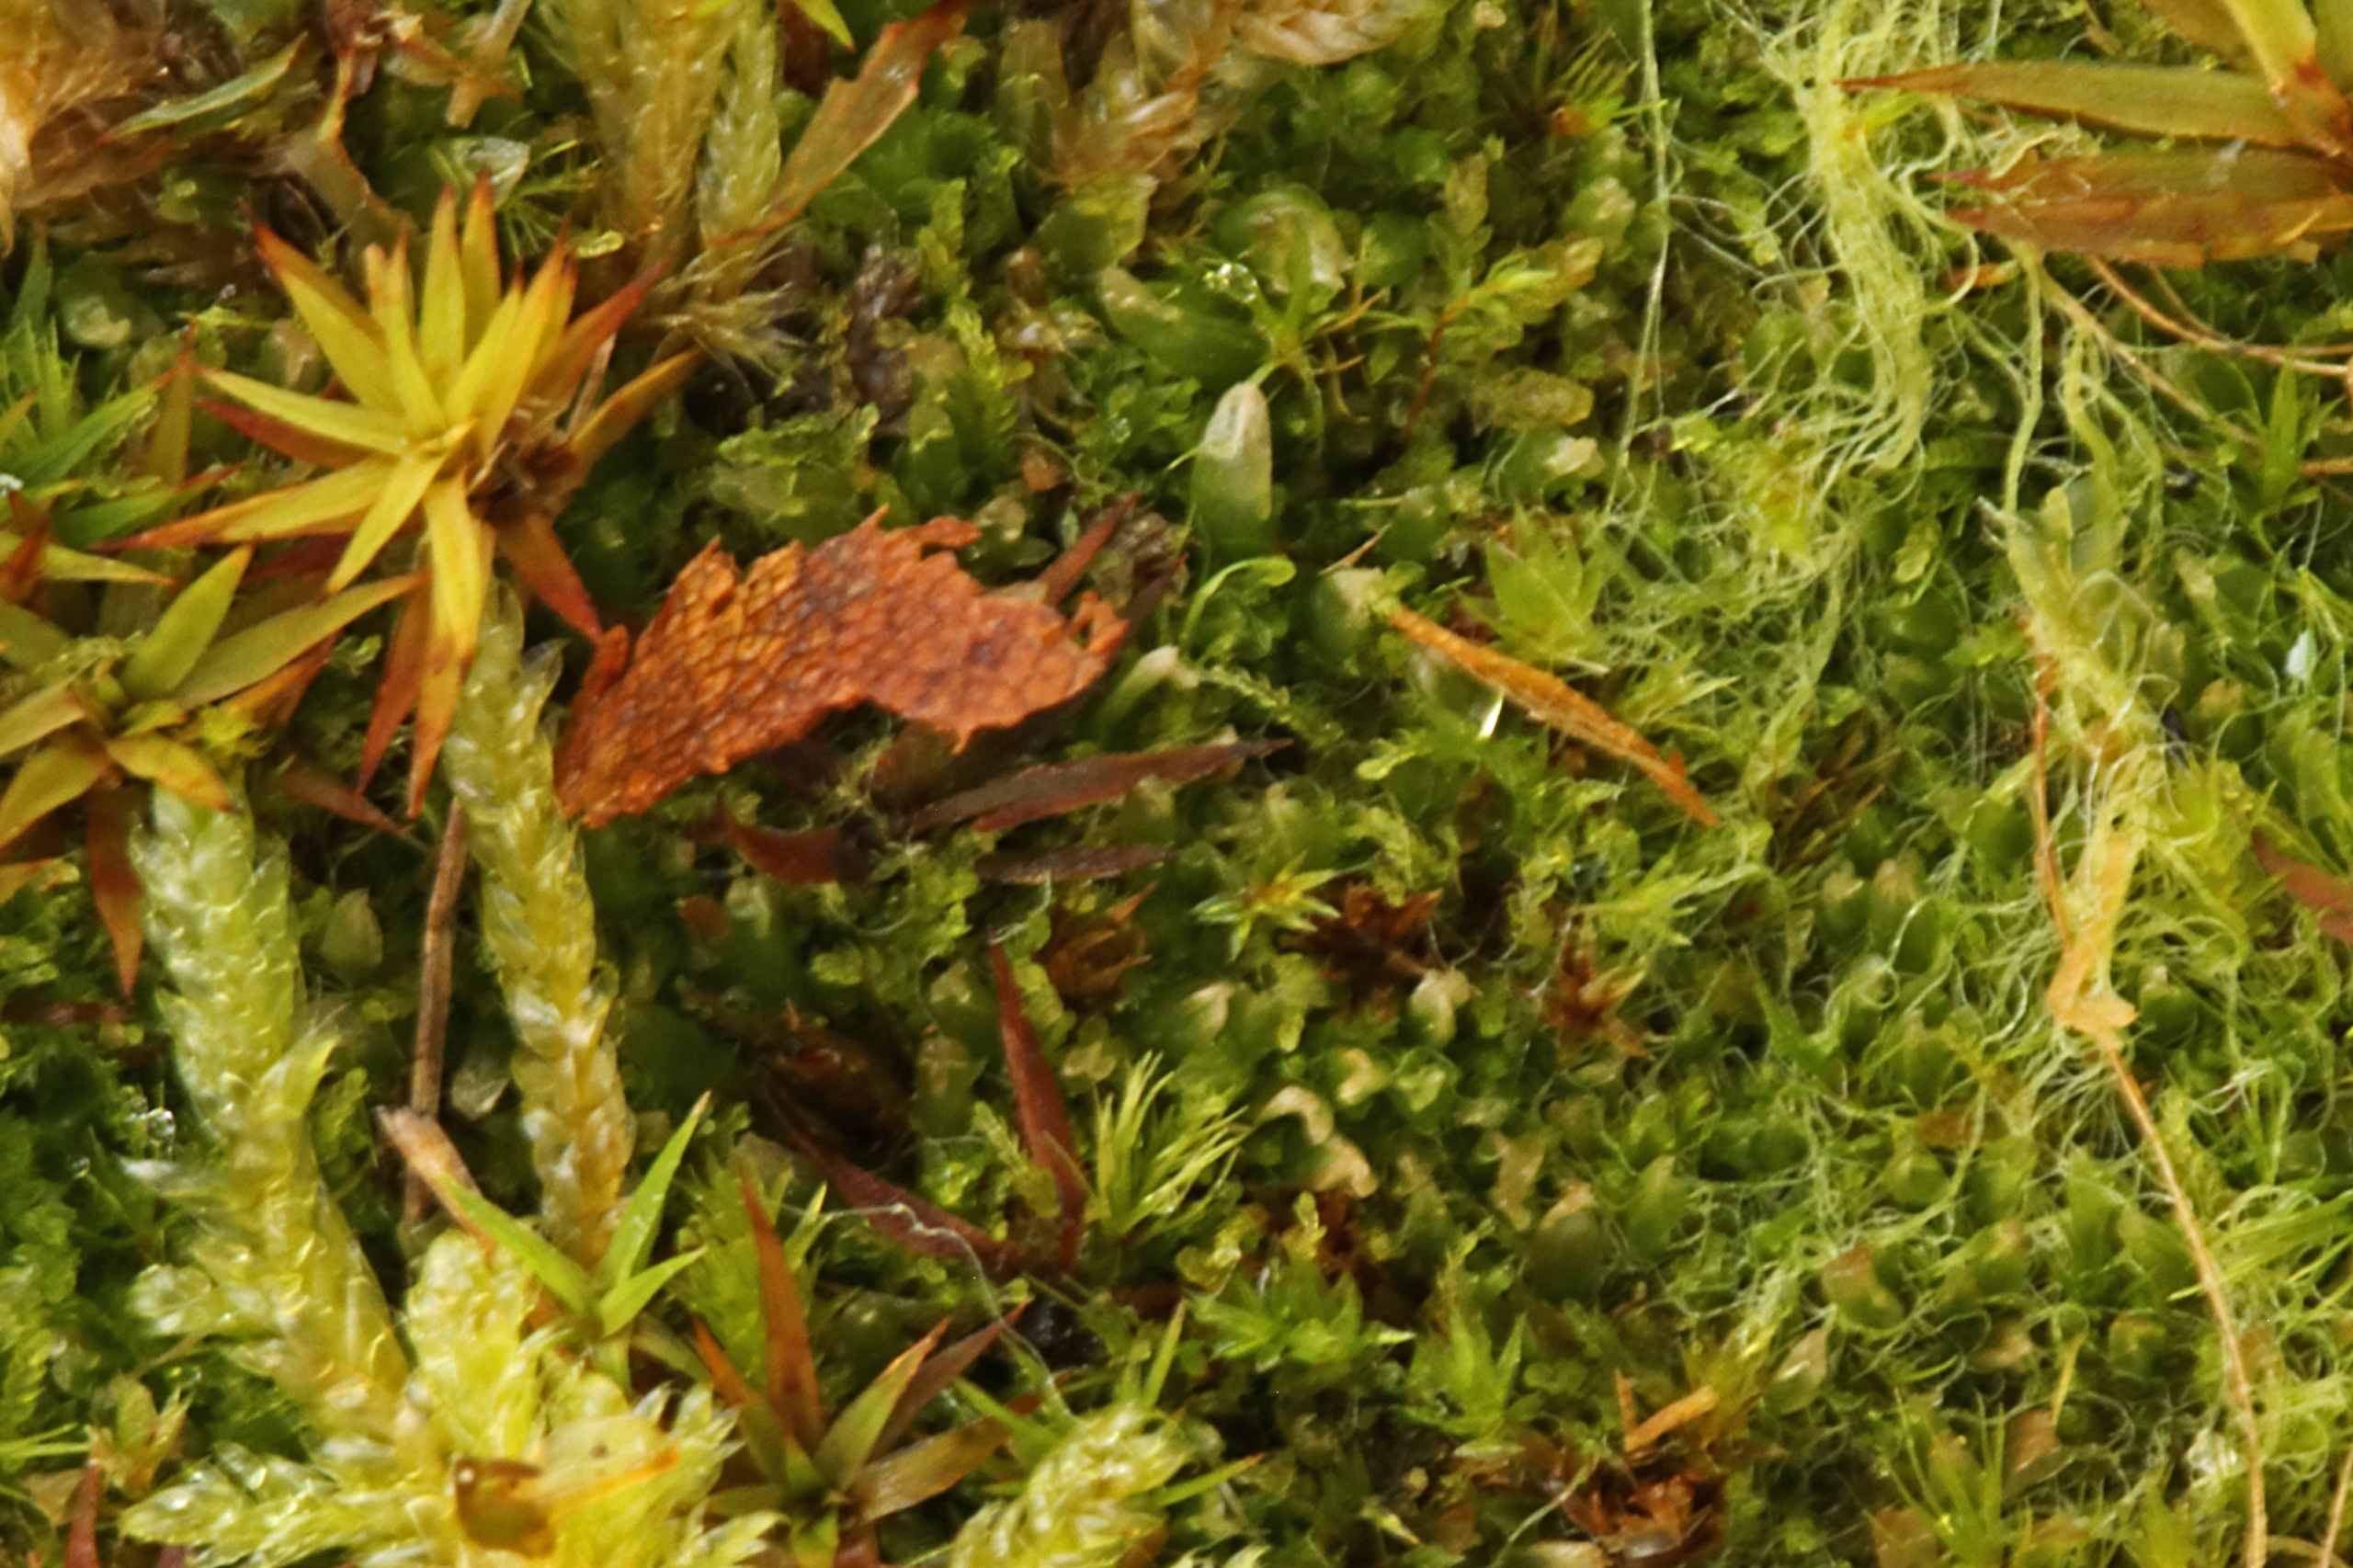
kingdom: Plantae
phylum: Marchantiophyta
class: Jungermanniopsida
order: Jungermanniales
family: Cephaloziaceae
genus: Cephalozia
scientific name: Cephalozia bicuspidata
